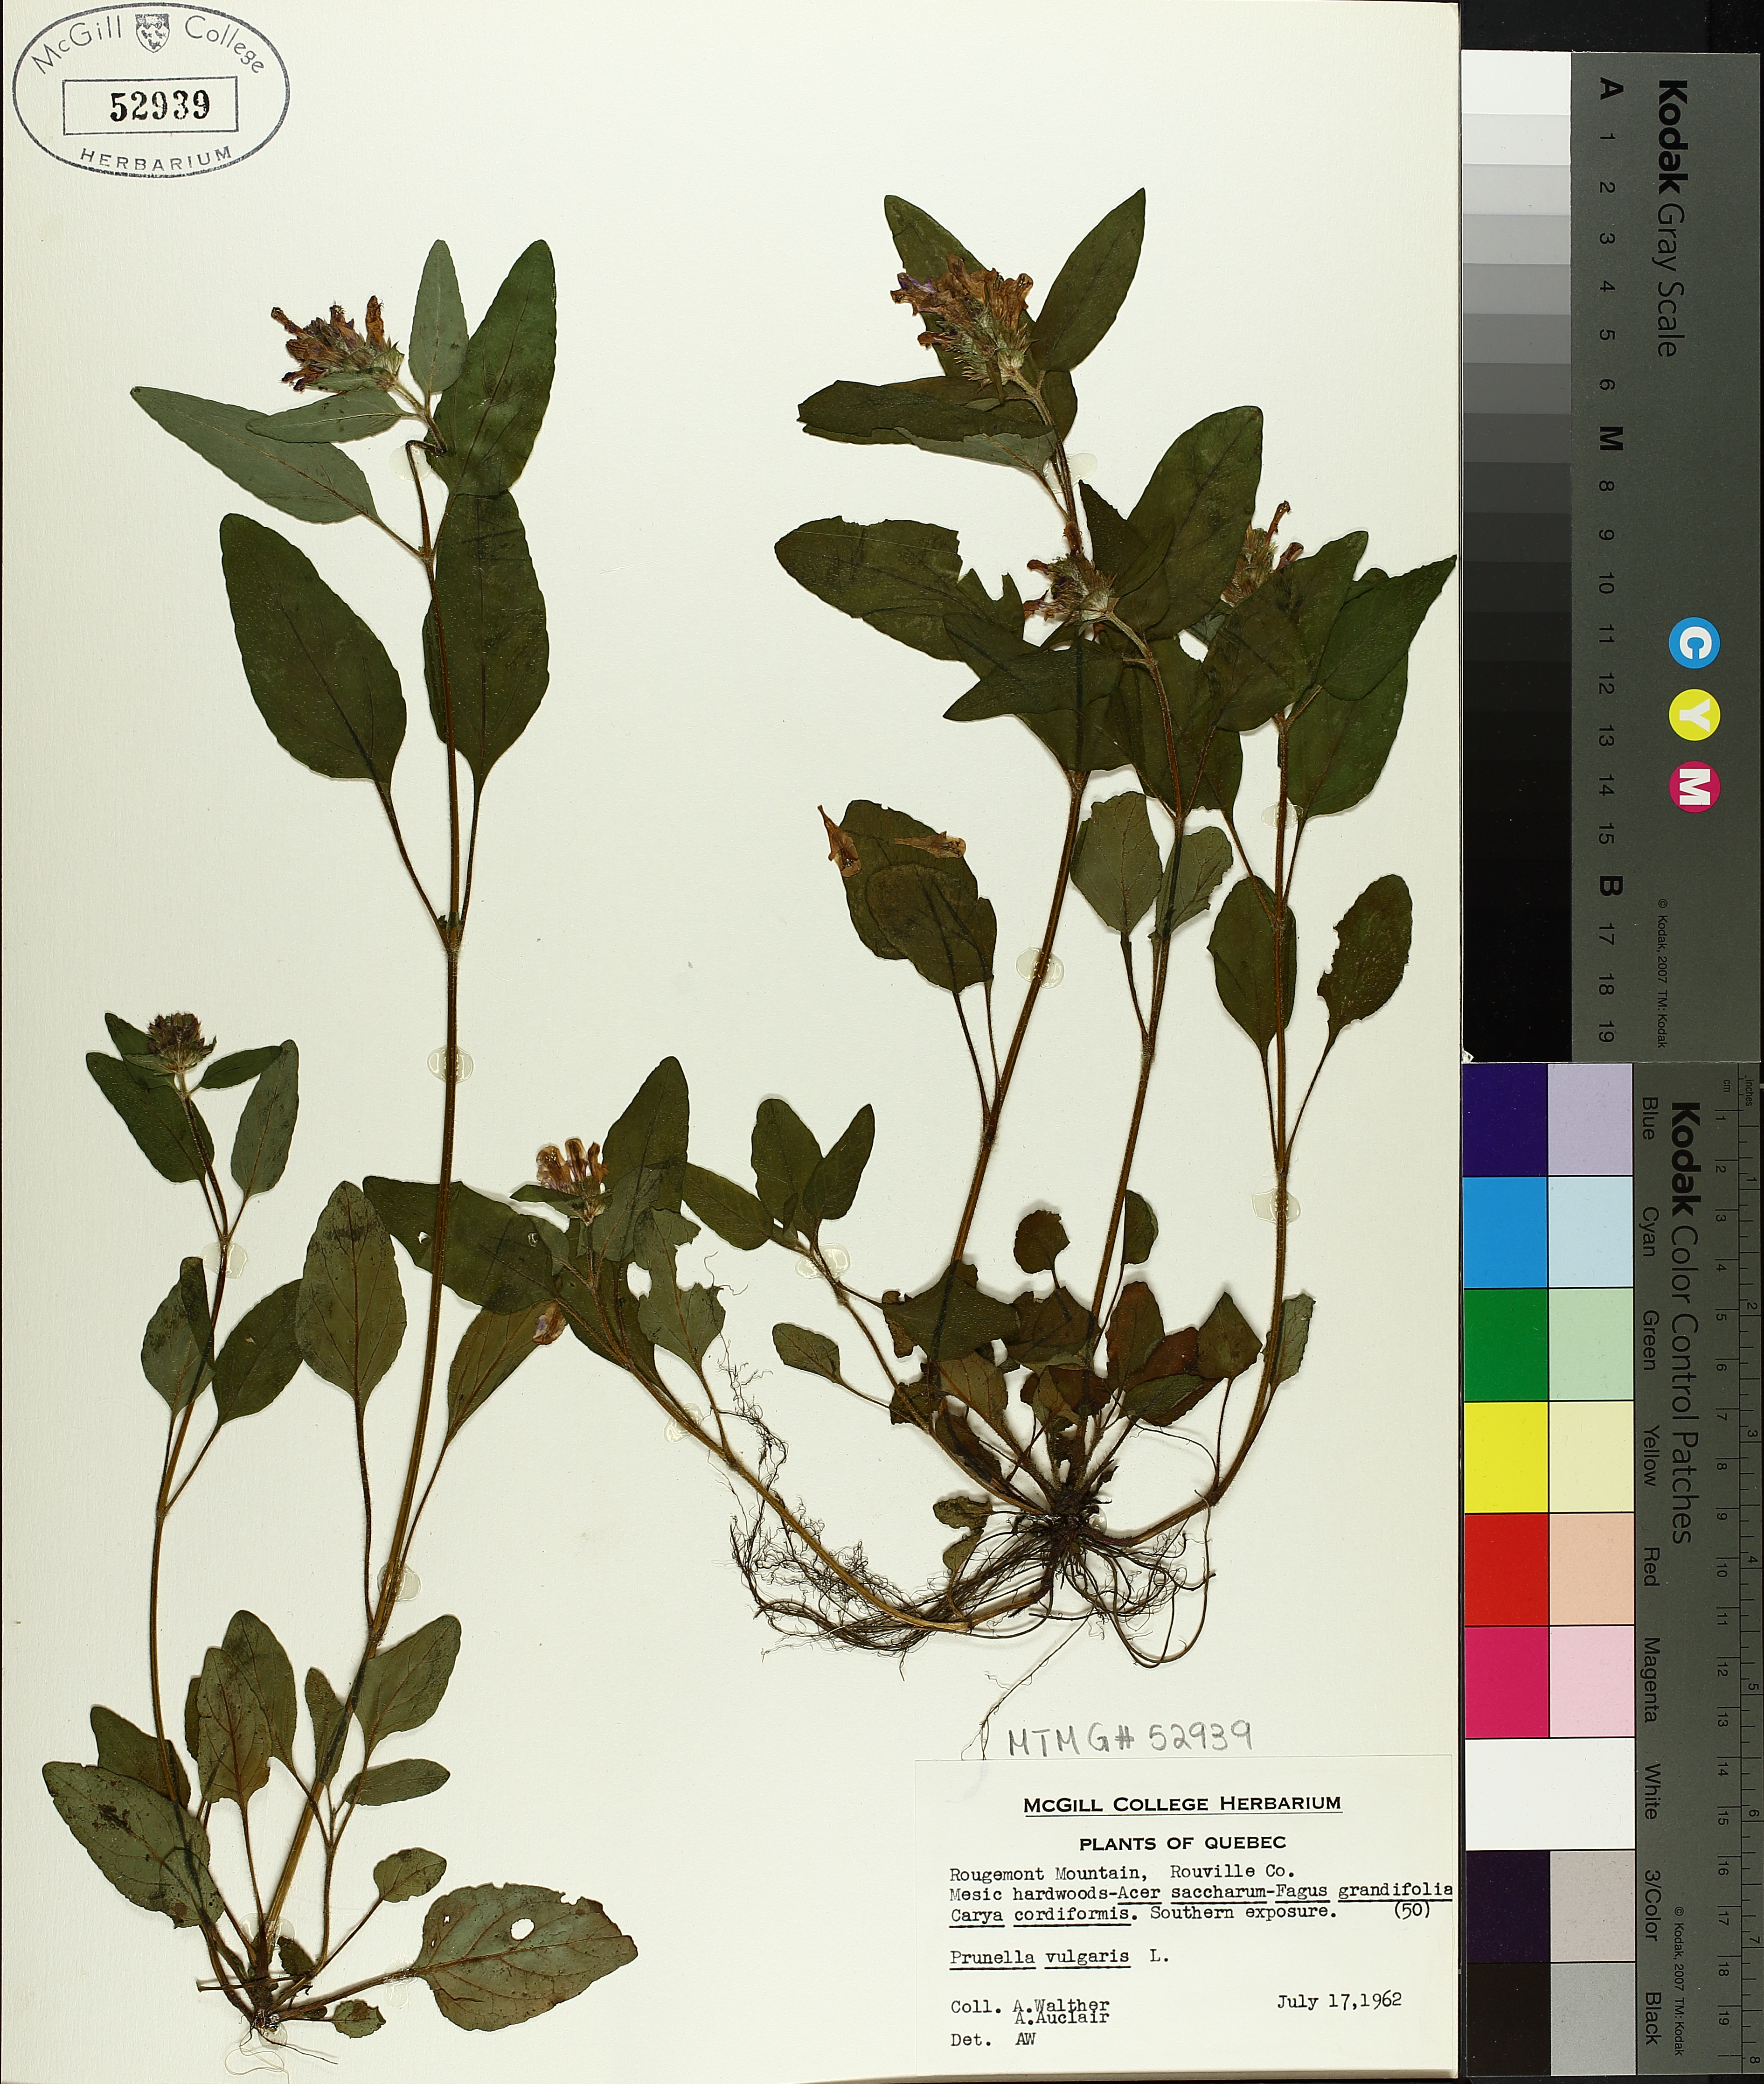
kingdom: Plantae
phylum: Tracheophyta
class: Magnoliopsida
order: Lamiales
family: Lamiaceae
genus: Prunella
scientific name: Prunella vulgaris
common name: Heal-all
